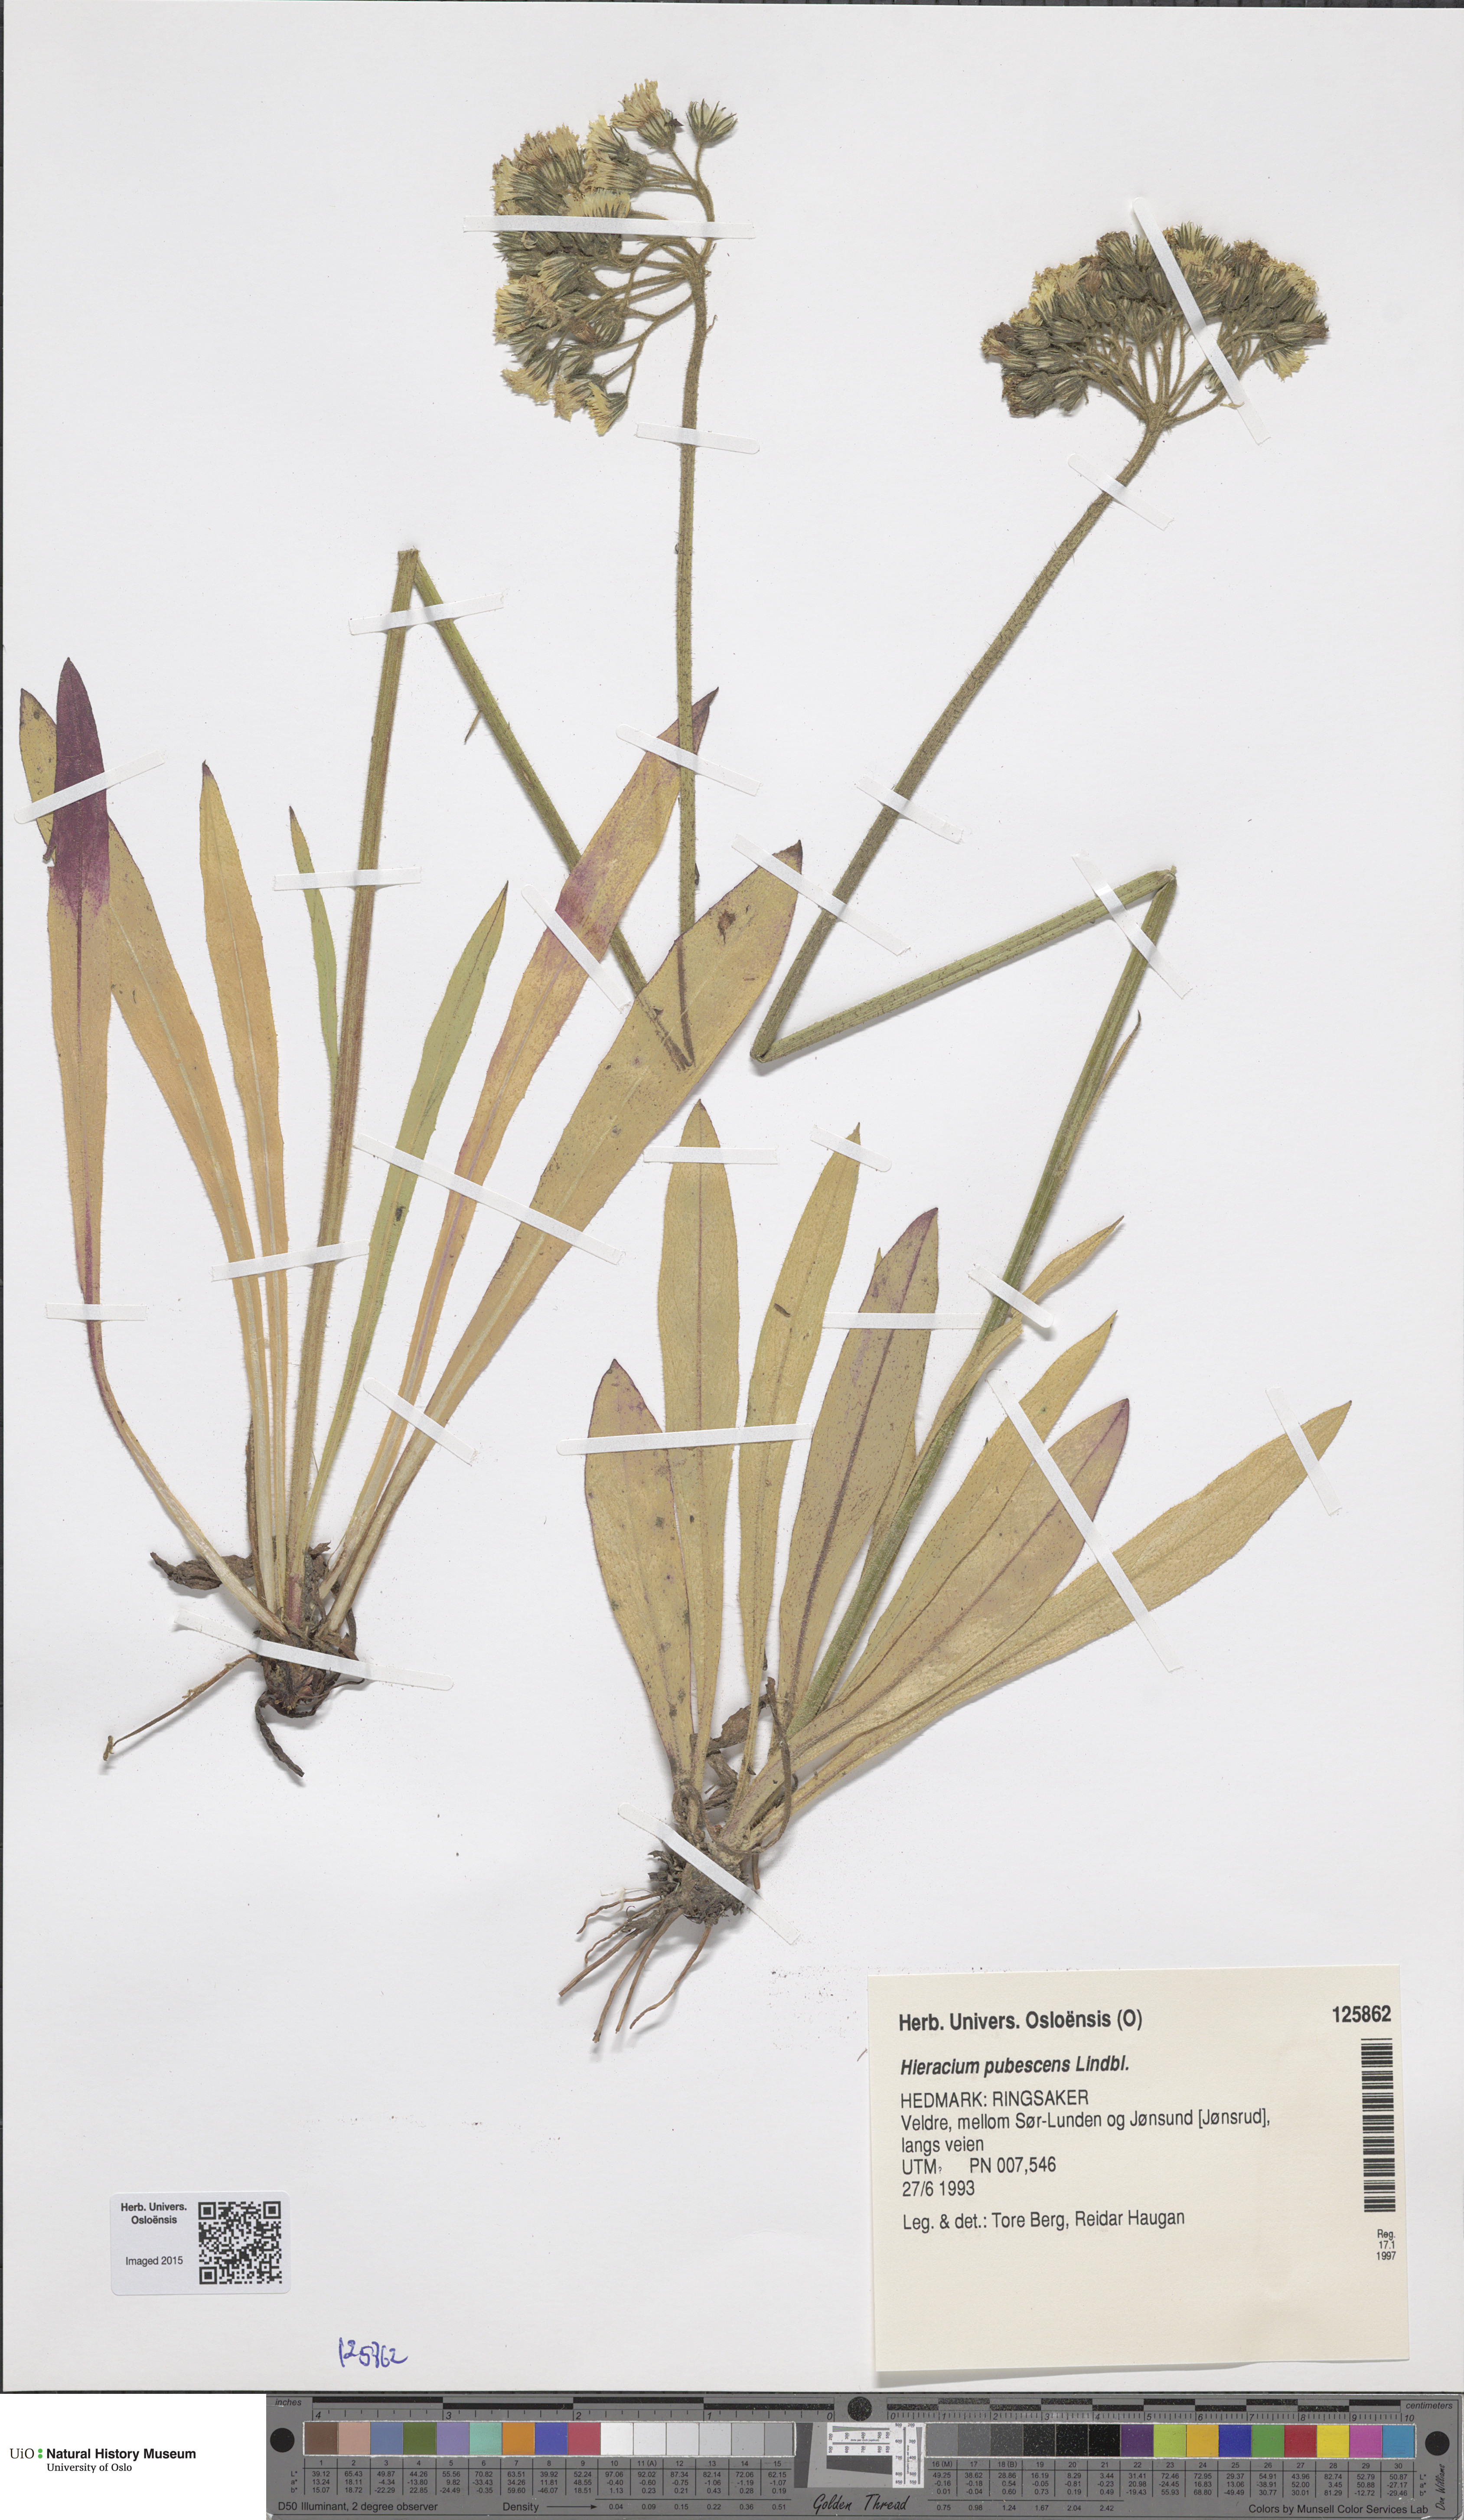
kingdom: Plantae
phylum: Tracheophyta
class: Magnoliopsida
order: Asterales
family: Asteraceae
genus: Pilosella
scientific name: Pilosella cymosa
